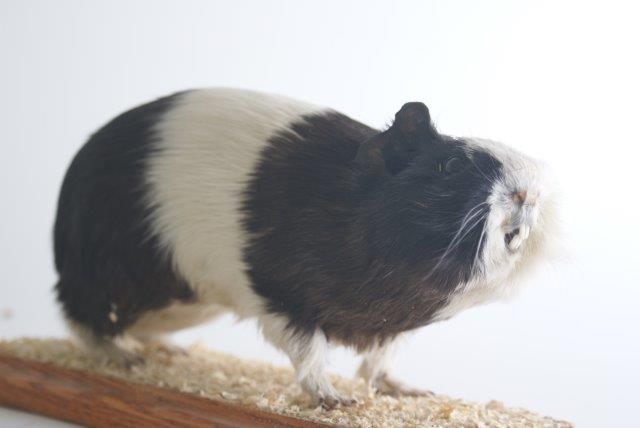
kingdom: Animalia
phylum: Chordata
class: Mammalia
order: Rodentia
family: Caviidae
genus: Cavia
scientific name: Cavia aperea
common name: Brazilian Guinea Pig
